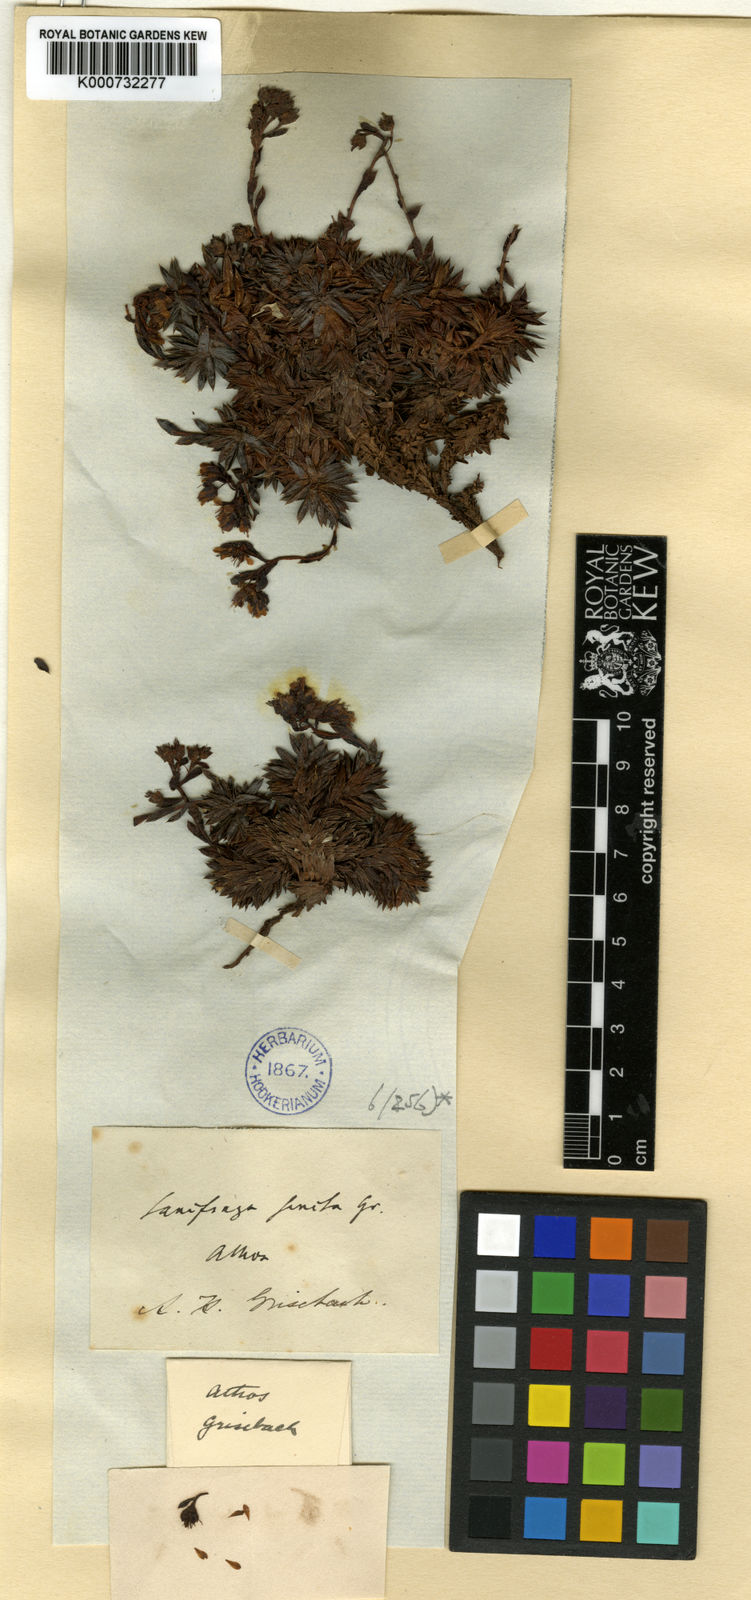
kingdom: Plantae
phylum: Tracheophyta
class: Magnoliopsida
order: Saxifragales
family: Saxifragaceae
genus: Saxifraga
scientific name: Saxifraga juniperifolia
